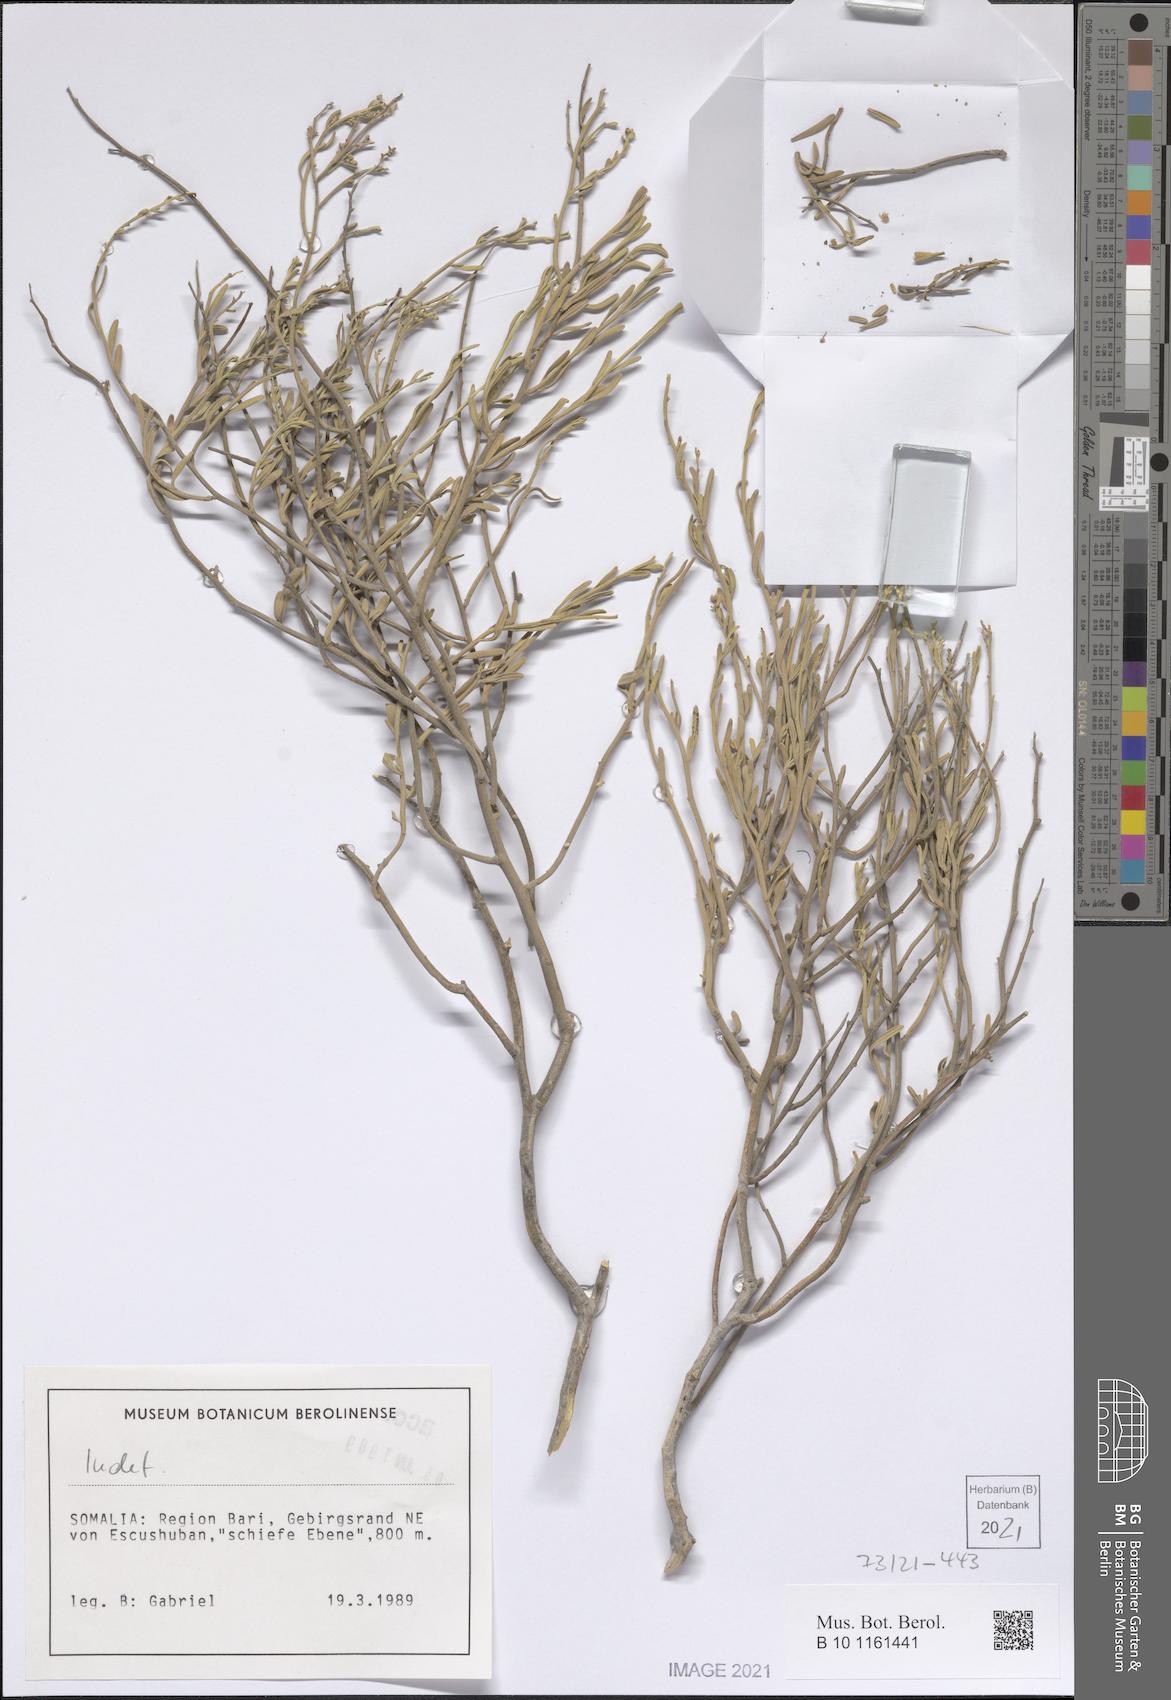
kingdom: Plantae
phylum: Tracheophyta
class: Magnoliopsida
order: Caryophyllales
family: Amaranthaceae
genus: Wadithamnus
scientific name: Wadithamnus
